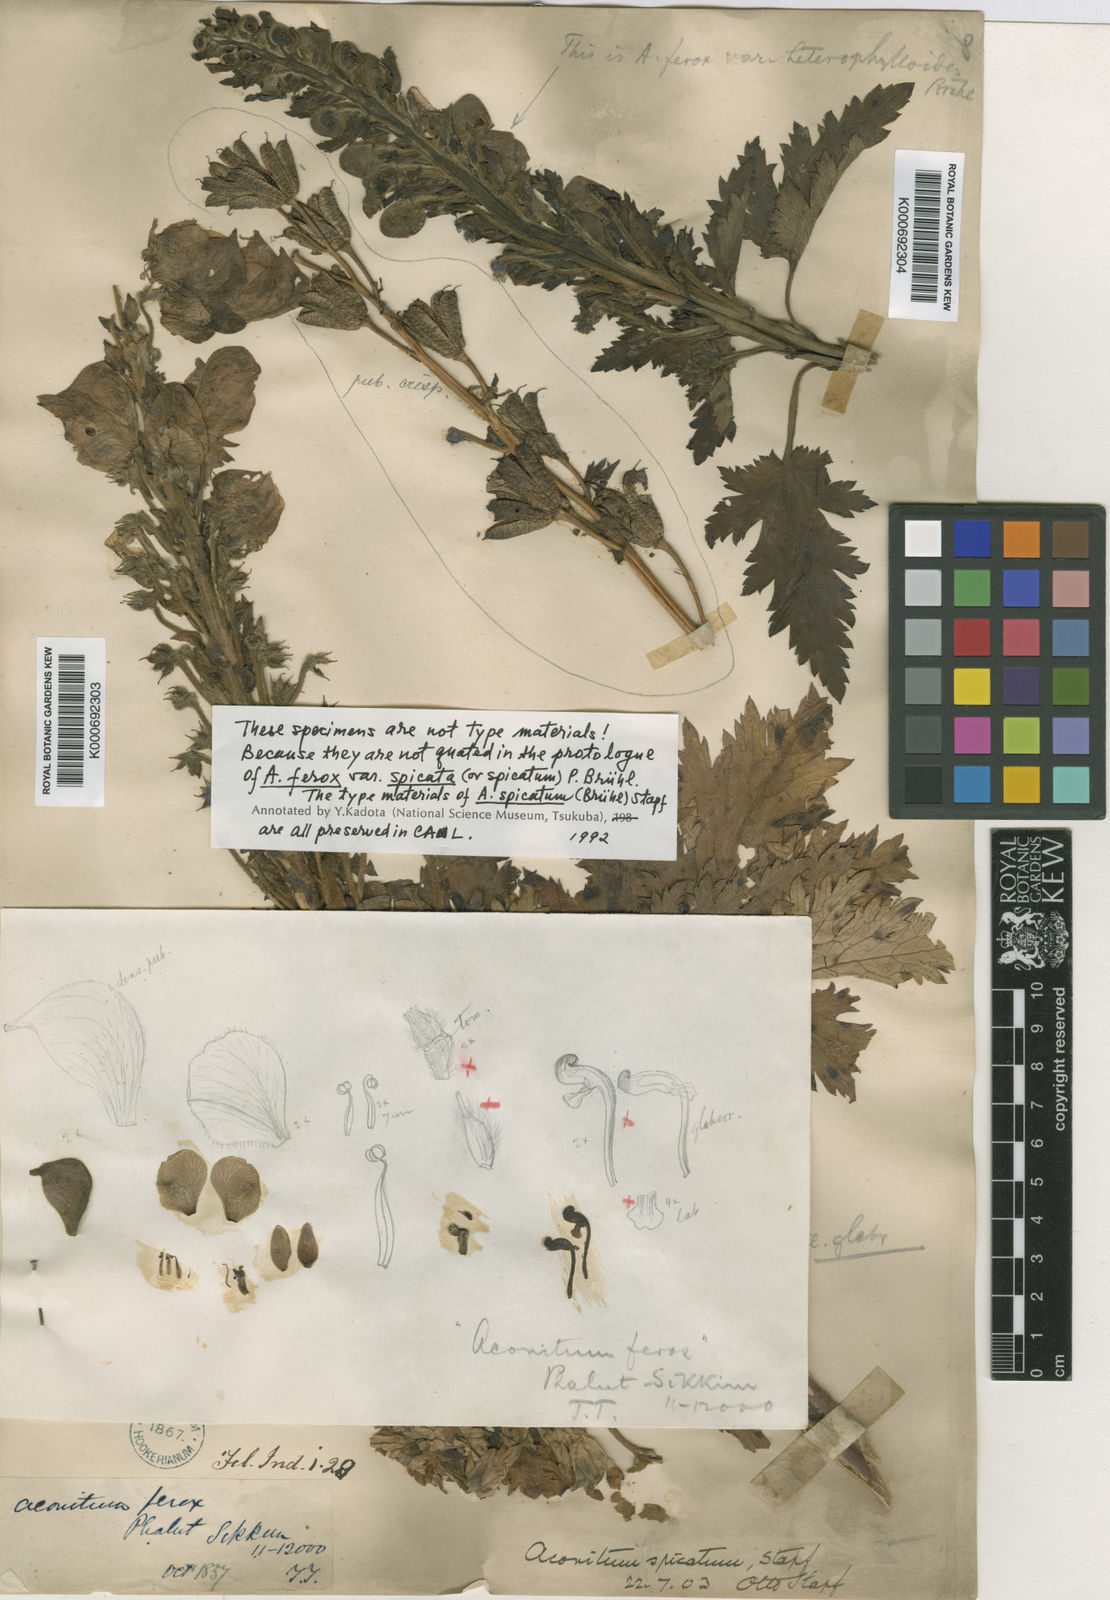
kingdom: Plantae
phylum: Tracheophyta
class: Magnoliopsida
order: Ranunculales
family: Ranunculaceae
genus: Aconitum
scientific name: Aconitum lethale
